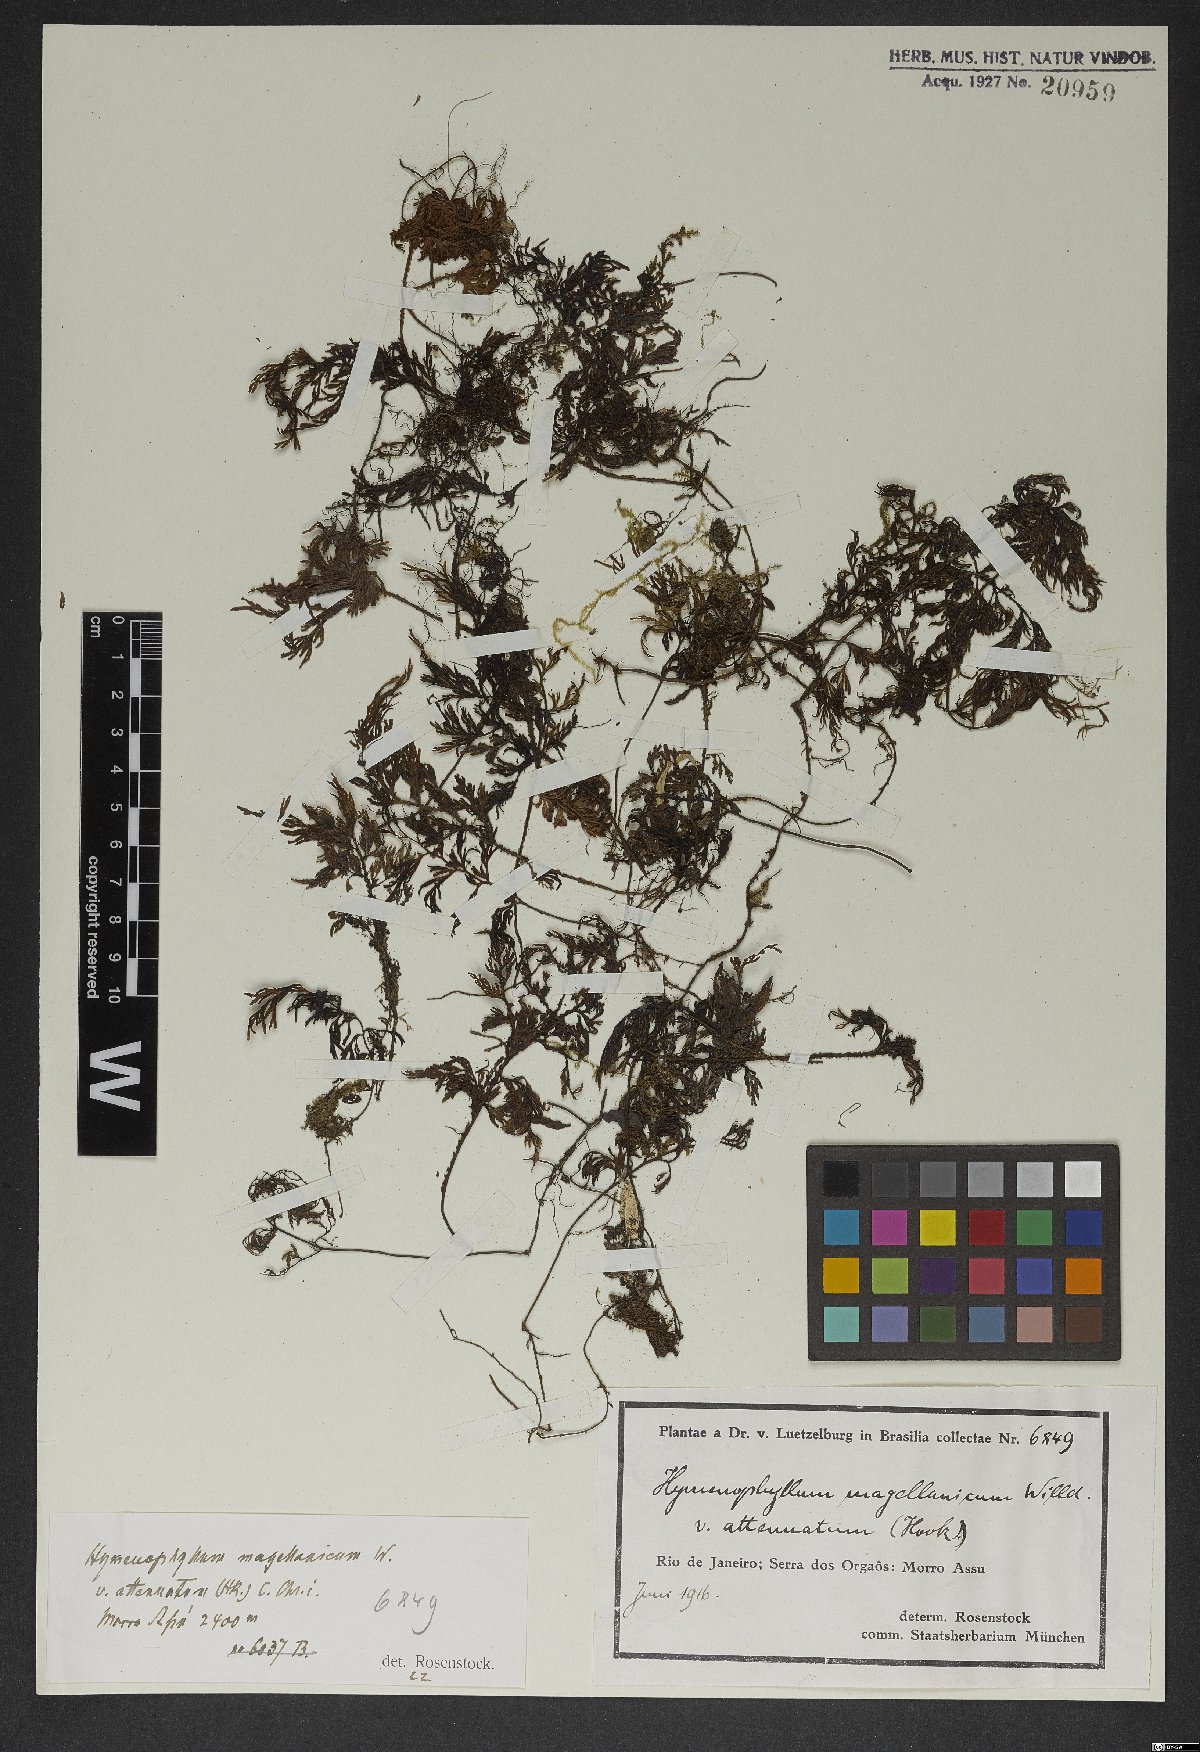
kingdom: Plantae
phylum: Tracheophyta
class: Polypodiopsida
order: Hymenophyllales
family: Hymenophyllaceae
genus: Hymenophyllum
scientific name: Hymenophyllum seselifolium
